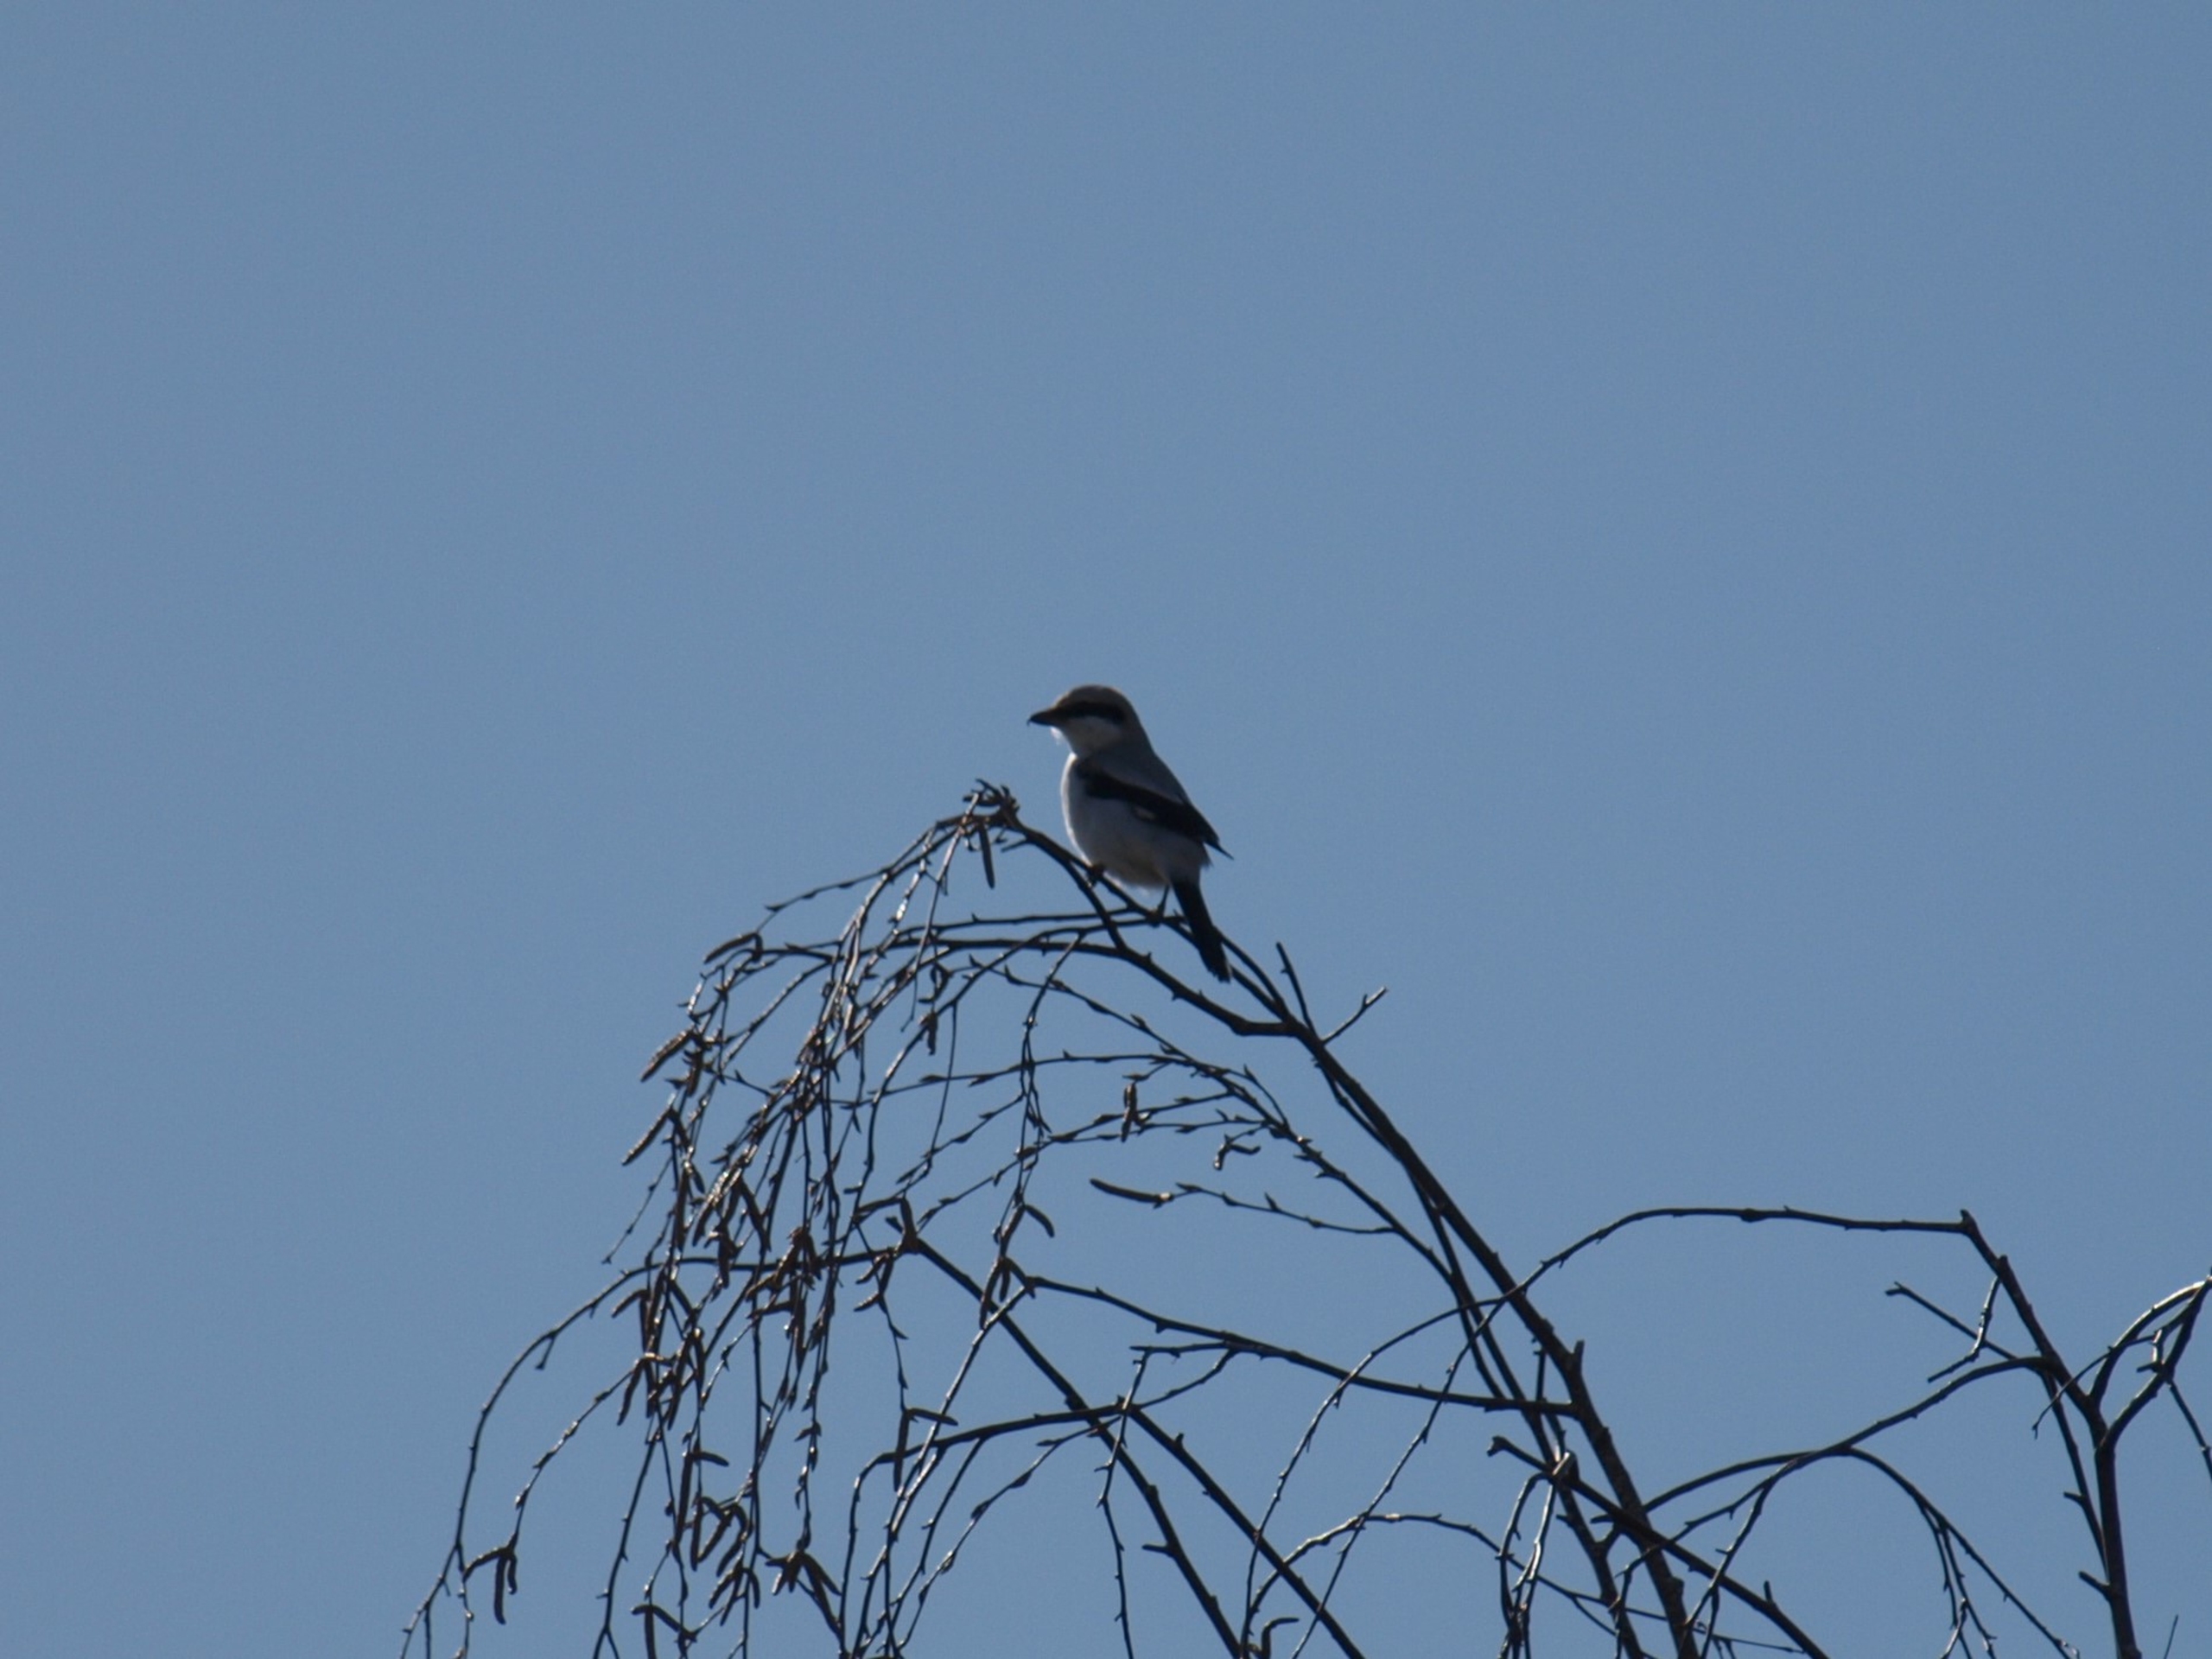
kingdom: Animalia
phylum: Chordata
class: Aves
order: Passeriformes
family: Laniidae
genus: Lanius
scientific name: Lanius excubitor
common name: Stor tornskade
